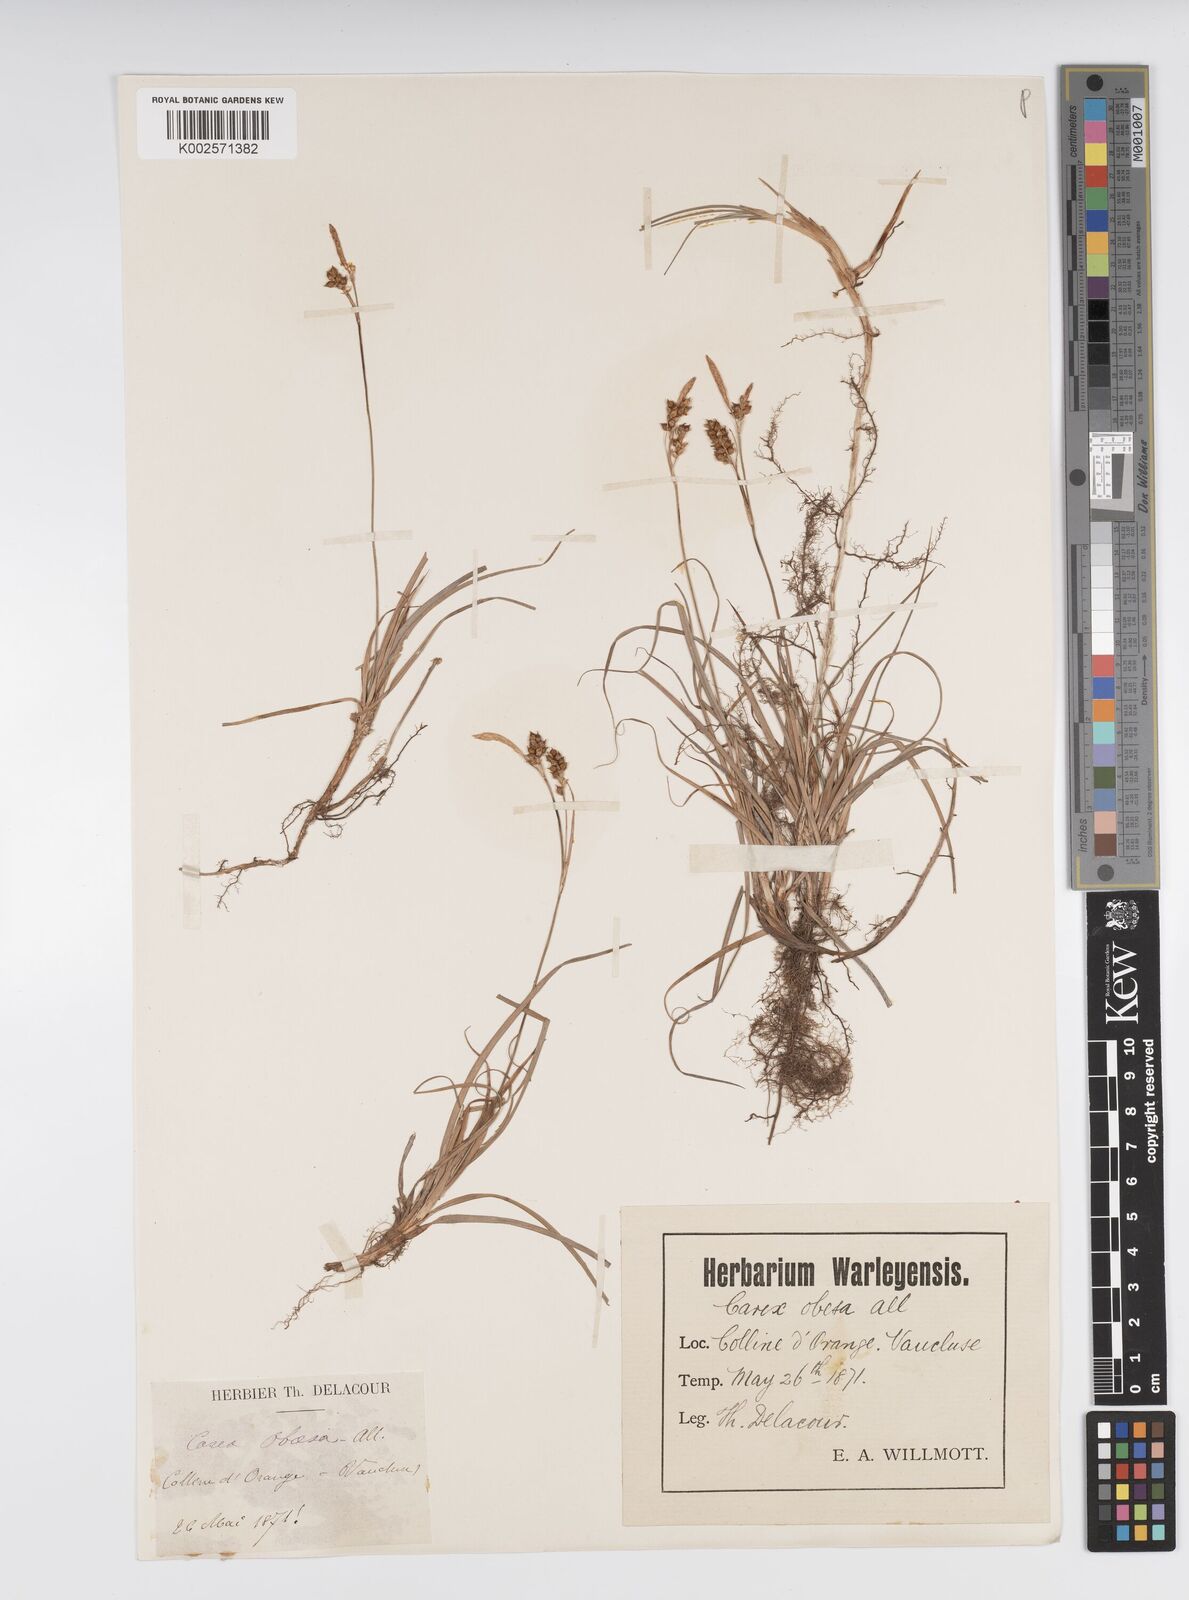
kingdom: Plantae
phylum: Tracheophyta
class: Liliopsida
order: Poales
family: Cyperaceae
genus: Carex
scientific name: Carex liparocarpos
